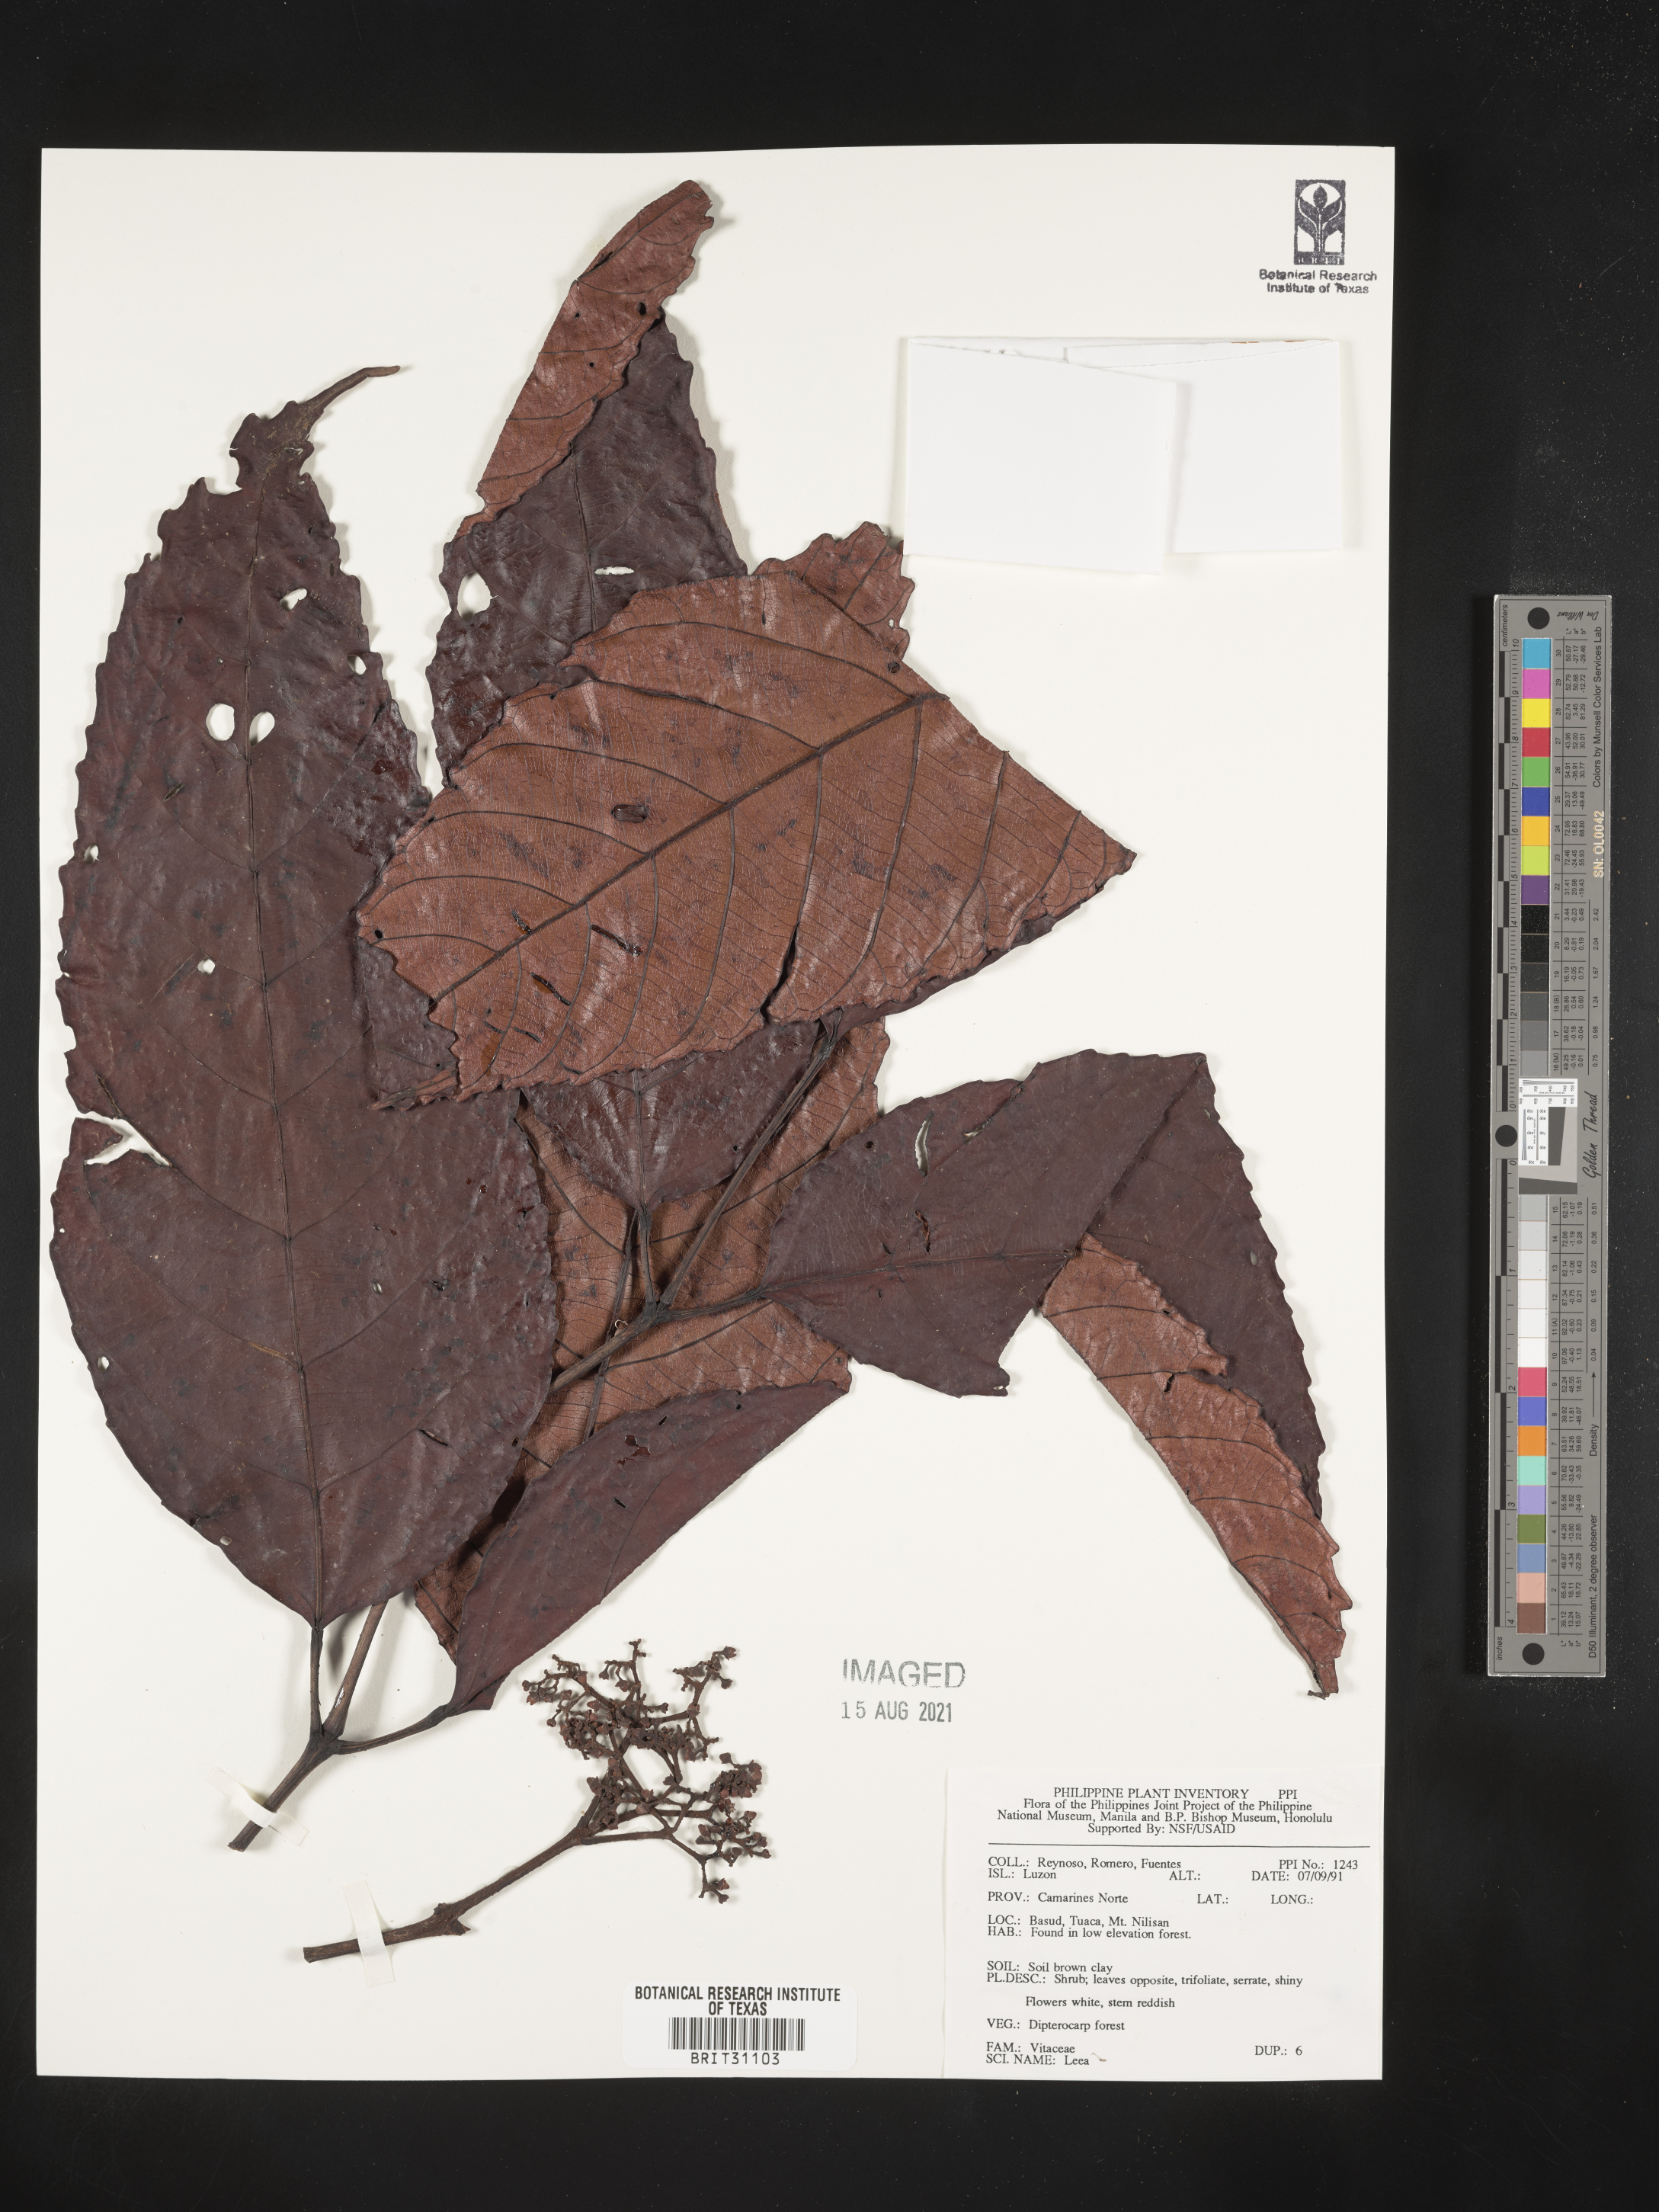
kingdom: Plantae
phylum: Tracheophyta
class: Magnoliopsida
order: Vitales
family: Vitaceae
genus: Leea
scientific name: Leea
